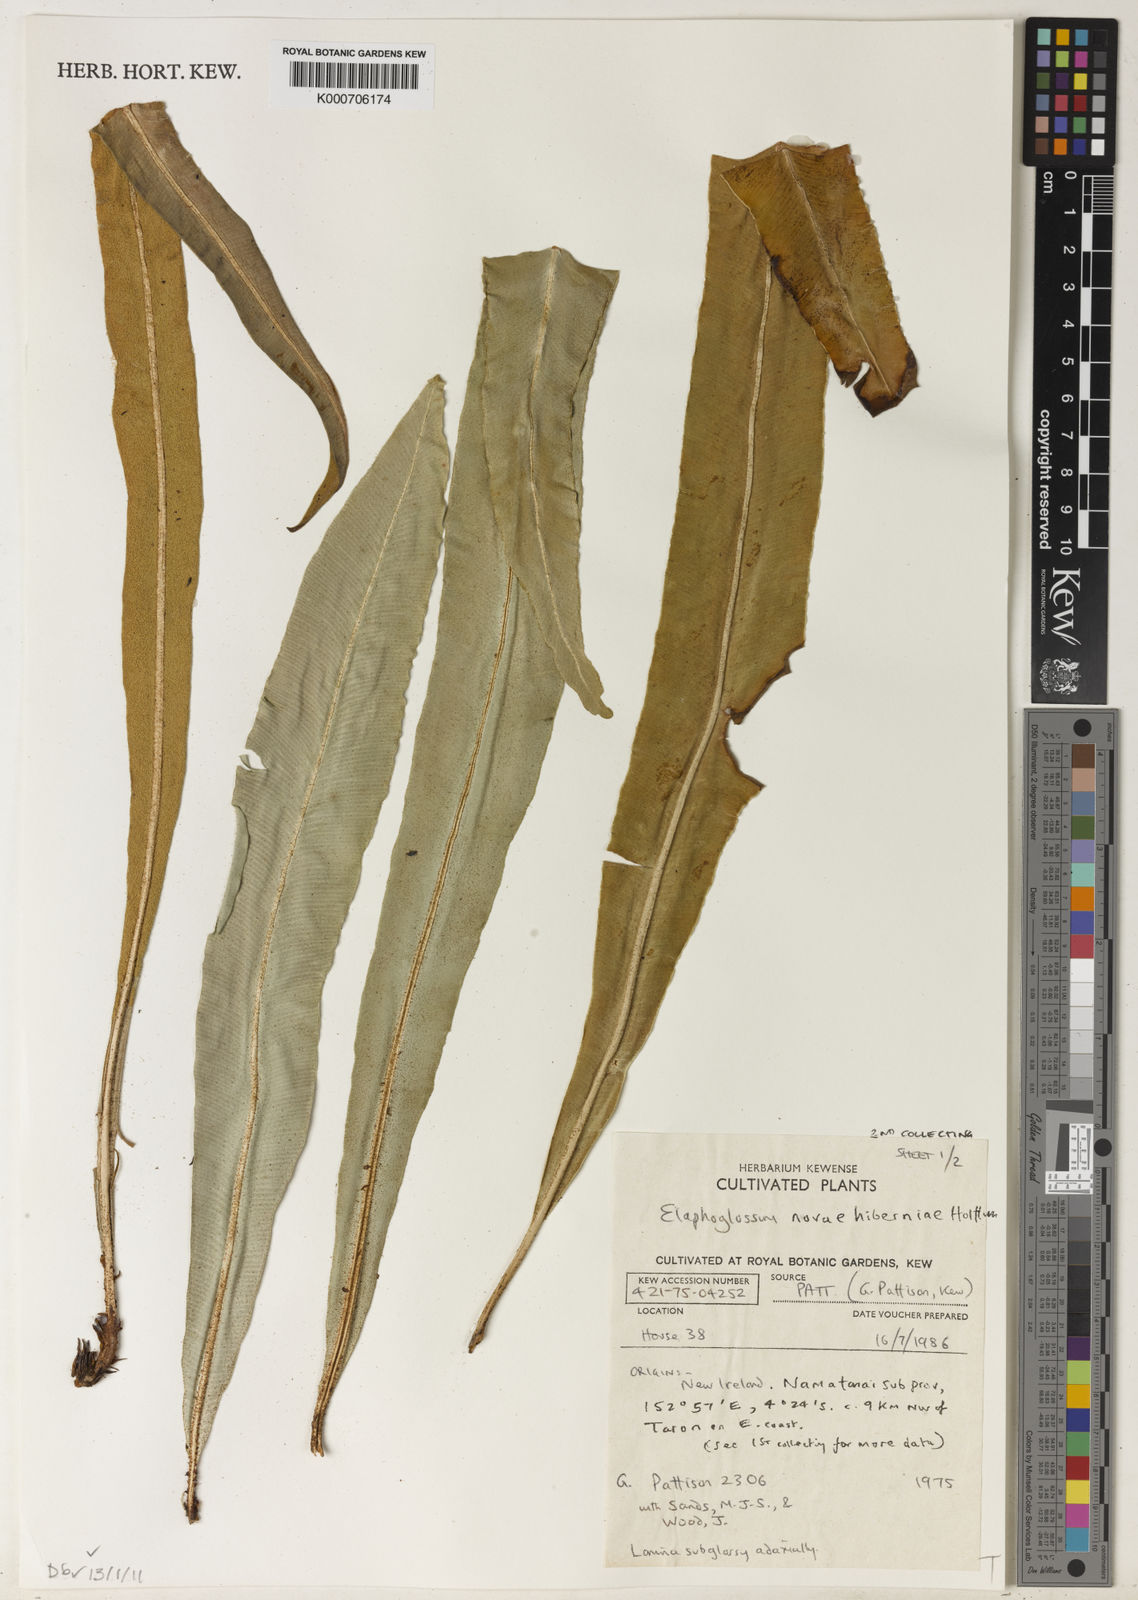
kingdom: Plantae
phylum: Tracheophyta
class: Polypodiopsida
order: Polypodiales
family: Dryopteridaceae
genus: Elaphoglossum
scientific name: Elaphoglossum
